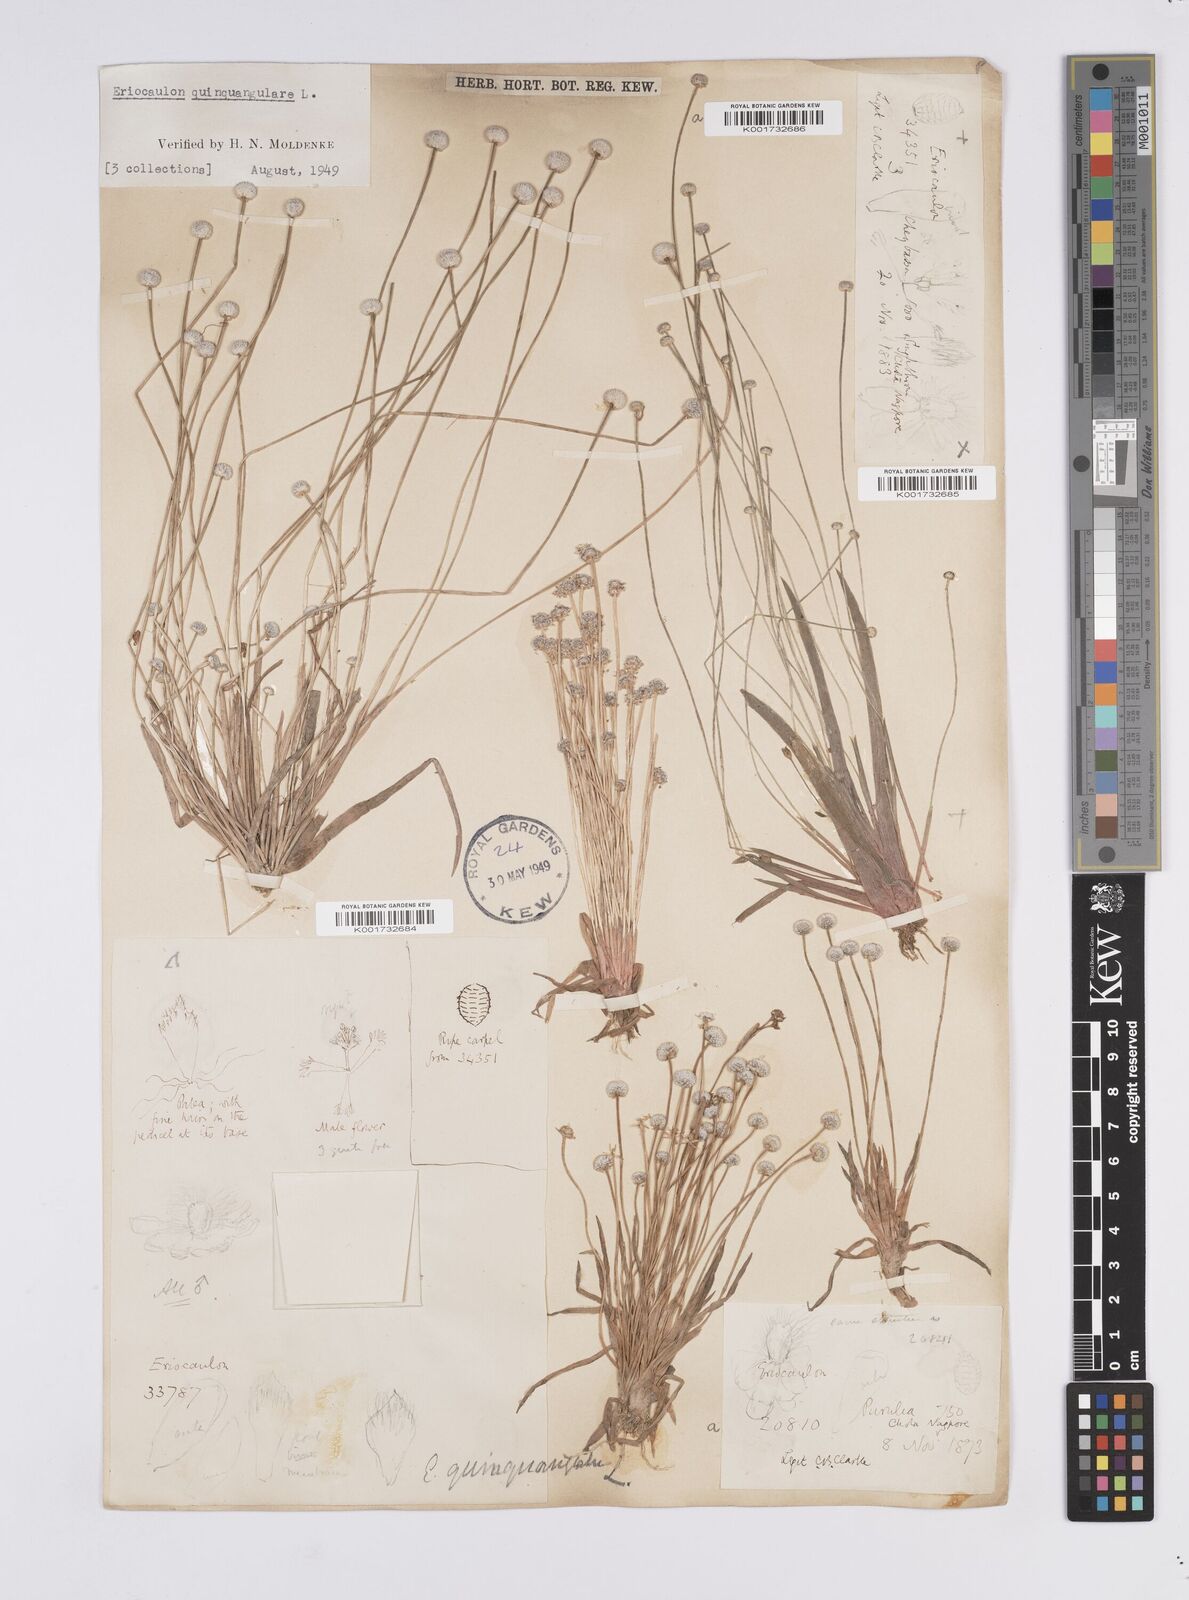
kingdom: Plantae
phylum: Tracheophyta
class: Liliopsida
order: Poales
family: Eriocaulaceae
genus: Eriocaulon
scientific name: Eriocaulon quinquangulare
